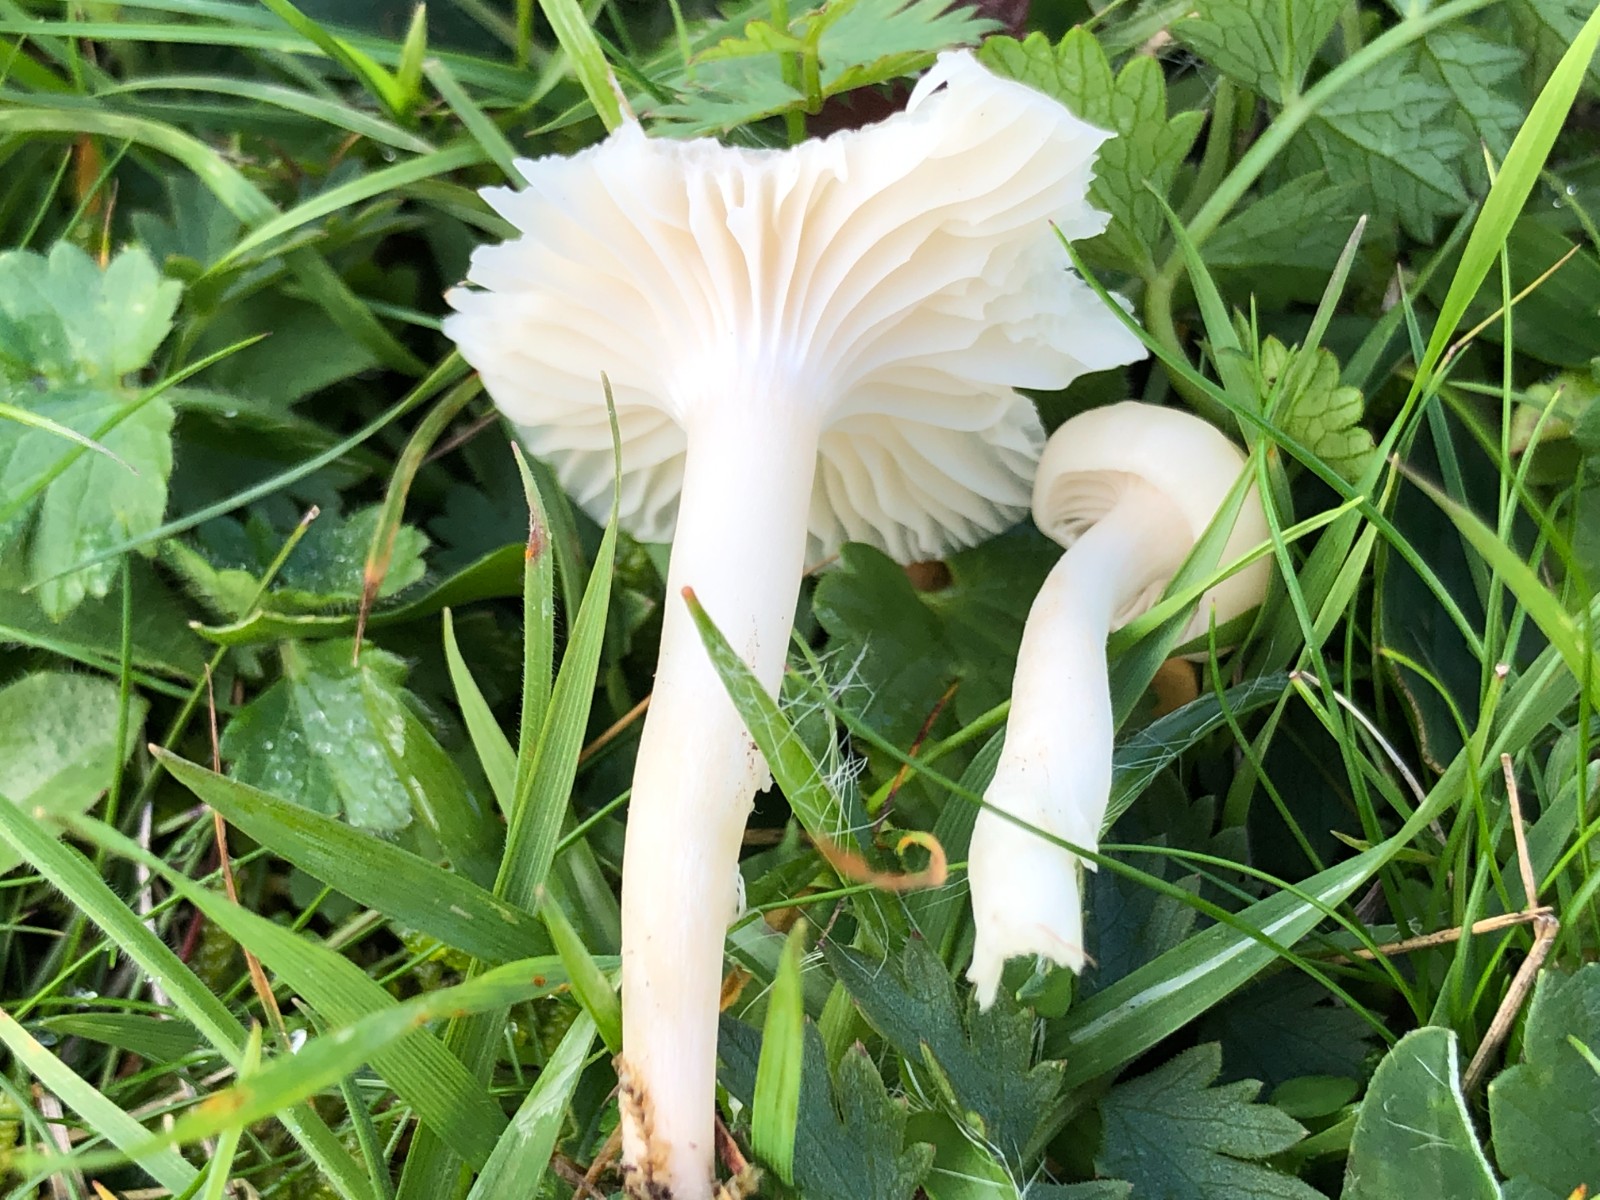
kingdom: Fungi
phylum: Basidiomycota
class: Agaricomycetes
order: Agaricales
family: Hygrophoraceae
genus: Cuphophyllus
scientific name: Cuphophyllus virgineus
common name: snehvid vokshat
